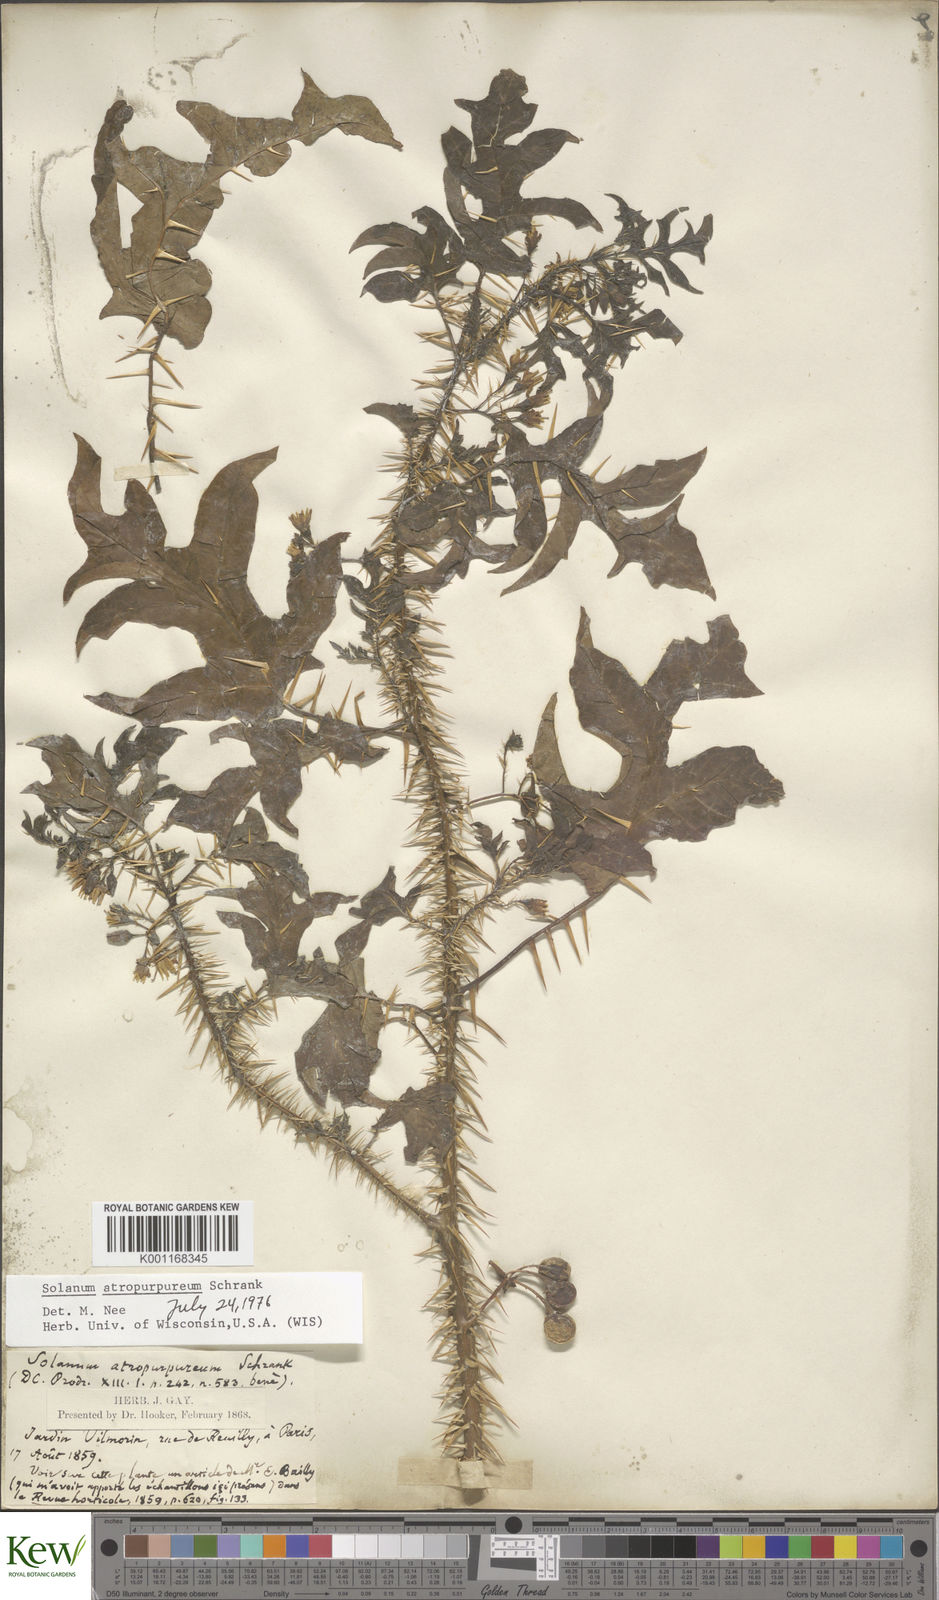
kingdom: Plantae
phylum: Tracheophyta
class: Magnoliopsida
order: Solanales
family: Solanaceae
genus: Solanum
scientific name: Solanum atropurpureum
